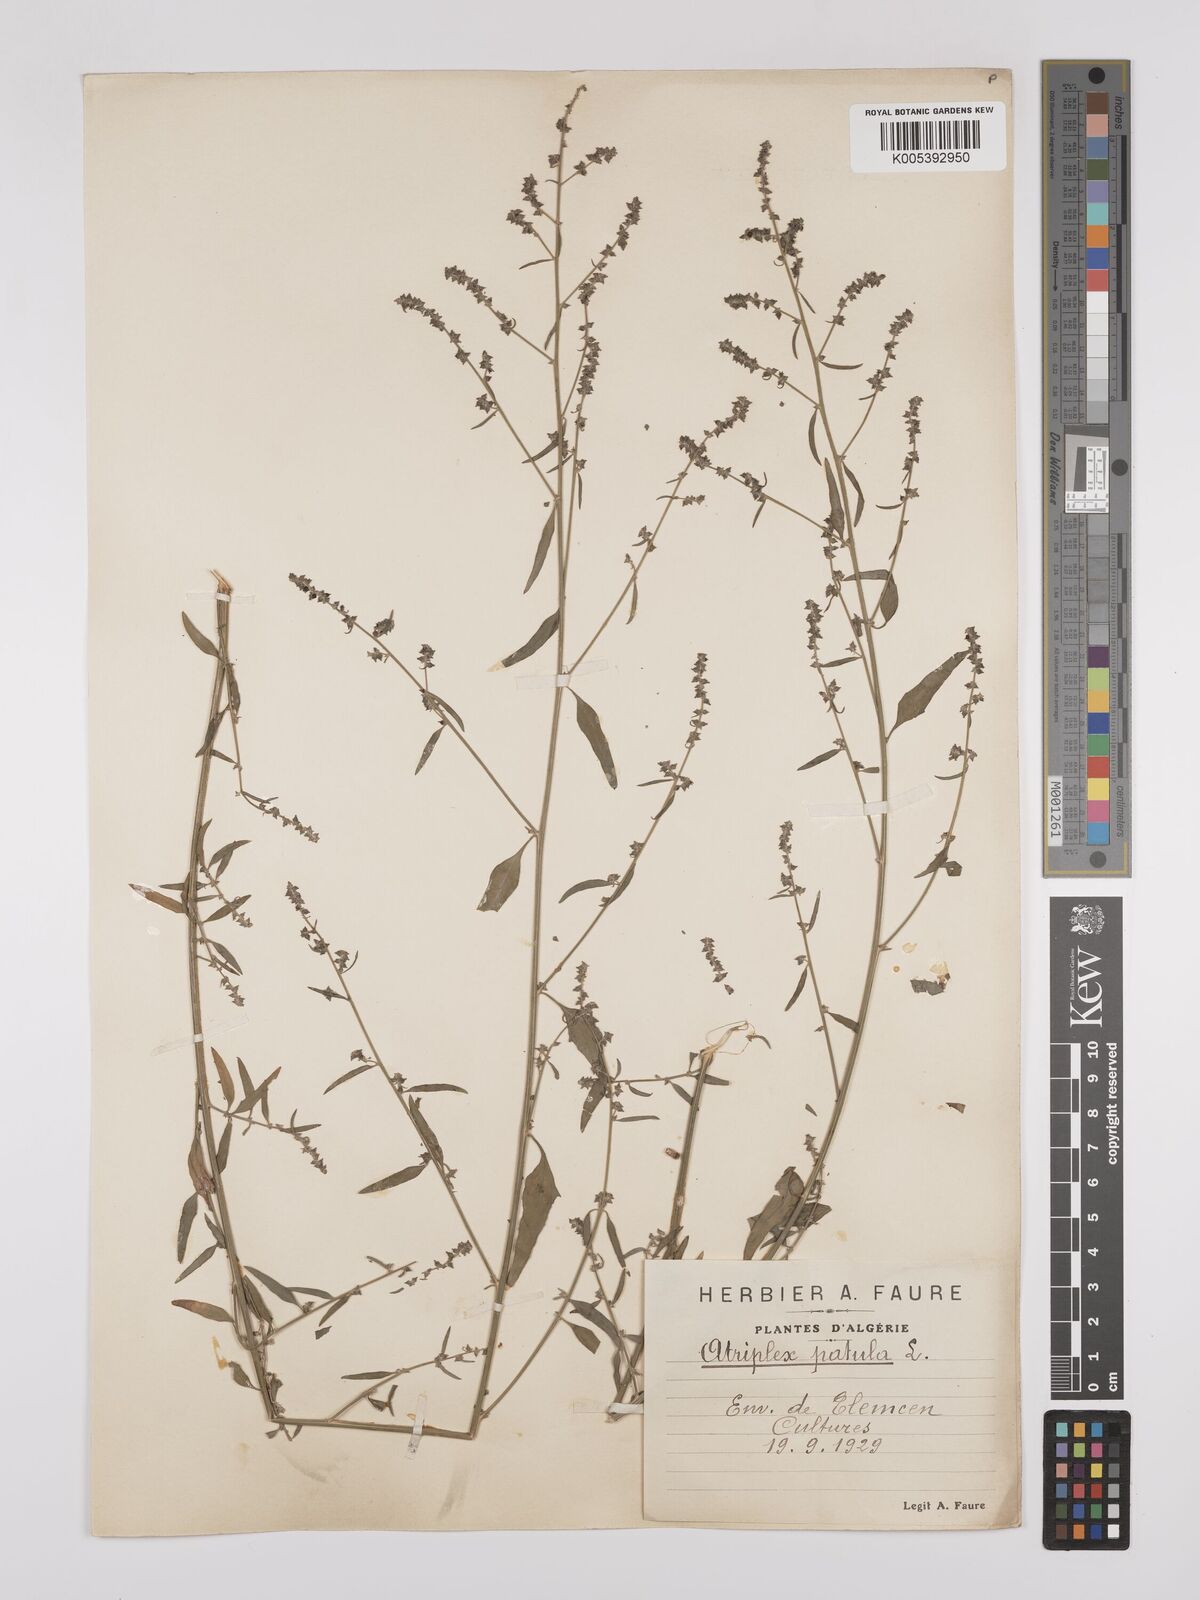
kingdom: Plantae
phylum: Tracheophyta
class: Magnoliopsida
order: Caryophyllales
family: Amaranthaceae
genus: Atriplex
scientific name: Atriplex patula
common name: Common orache
